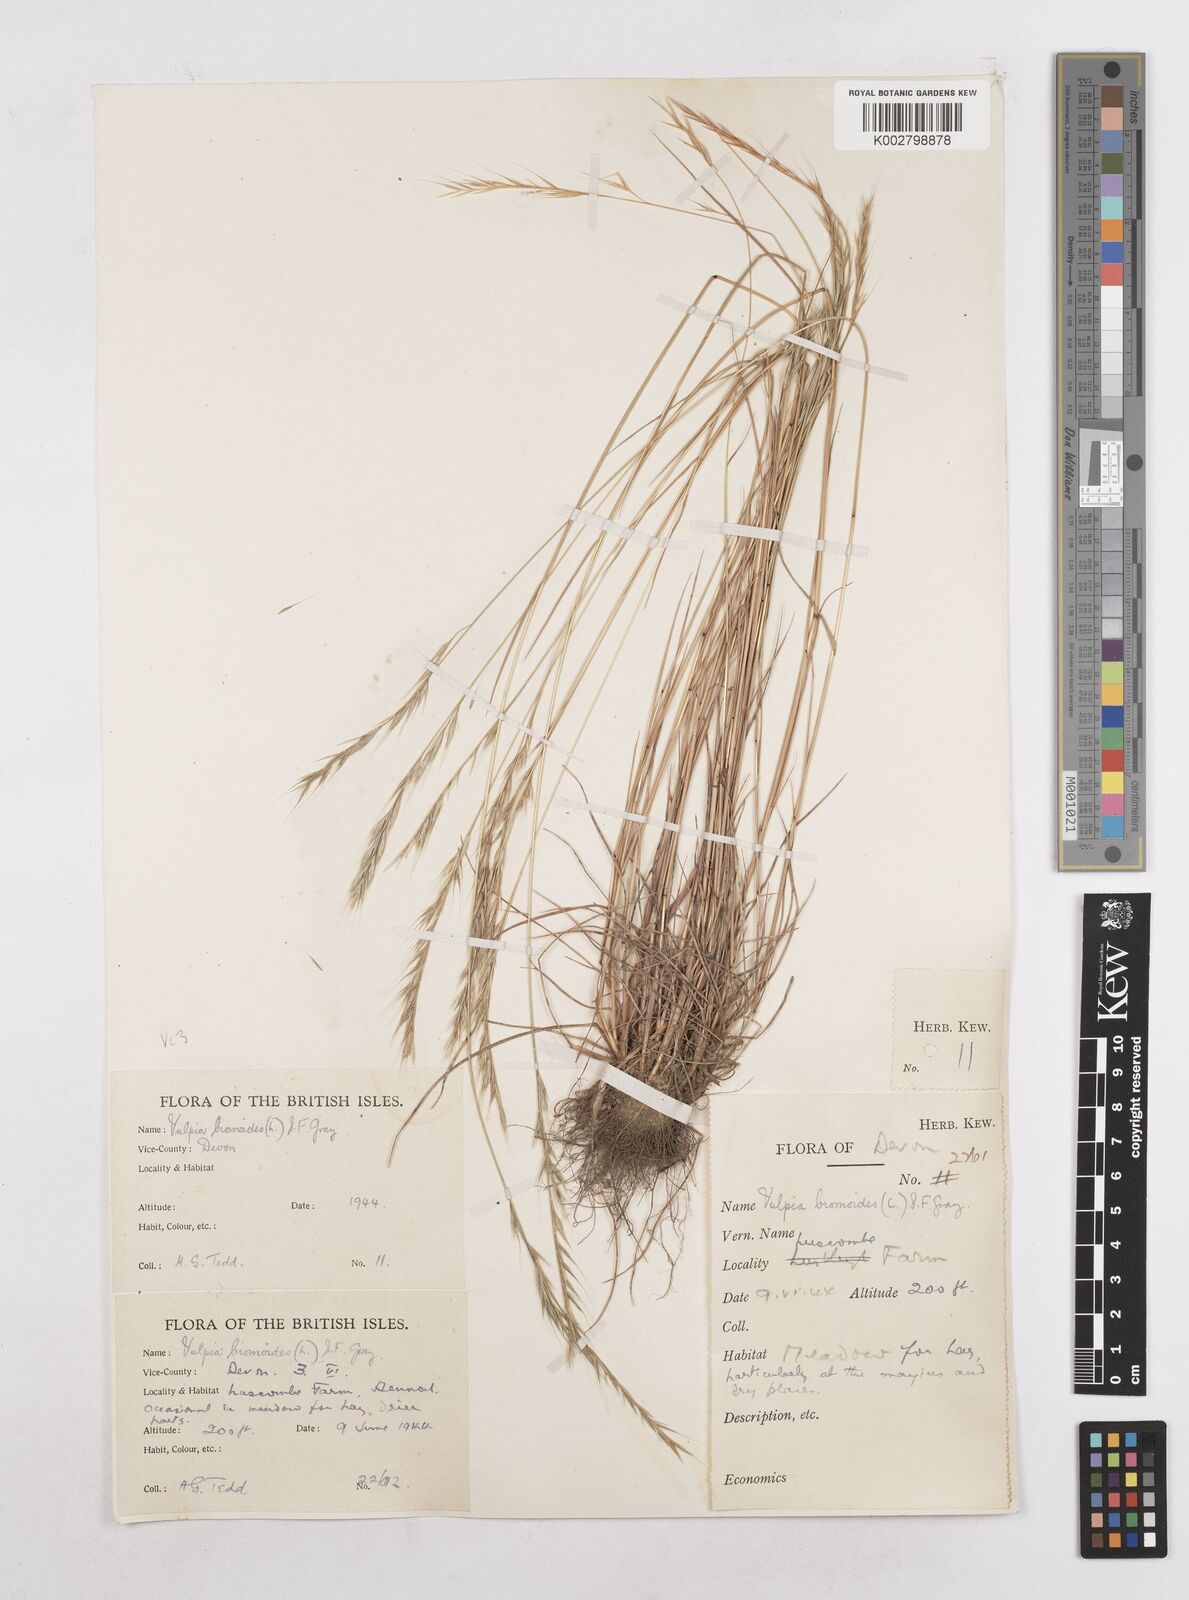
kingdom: Plantae
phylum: Tracheophyta
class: Liliopsida
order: Poales
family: Poaceae
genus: Festuca
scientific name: Festuca bromoides
